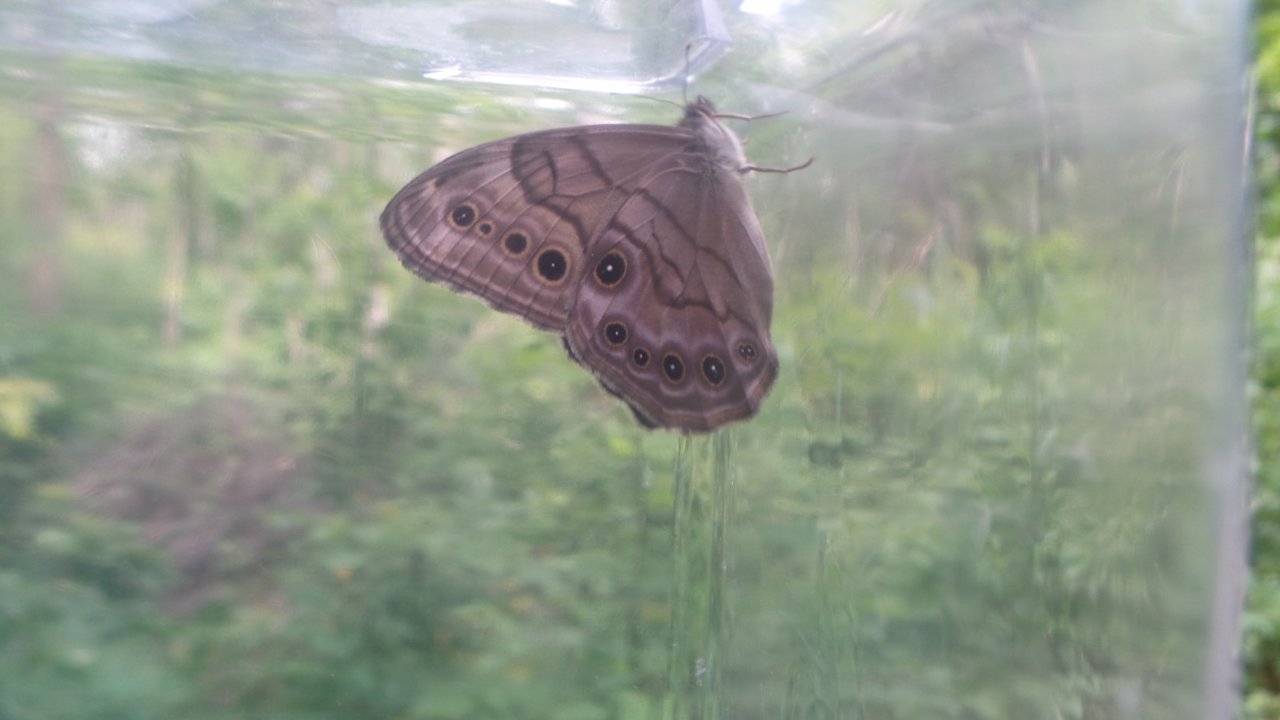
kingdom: Animalia
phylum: Arthropoda
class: Insecta
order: Lepidoptera
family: Nymphalidae
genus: Lethe
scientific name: Lethe anthedon
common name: Northern Pearly-Eye
